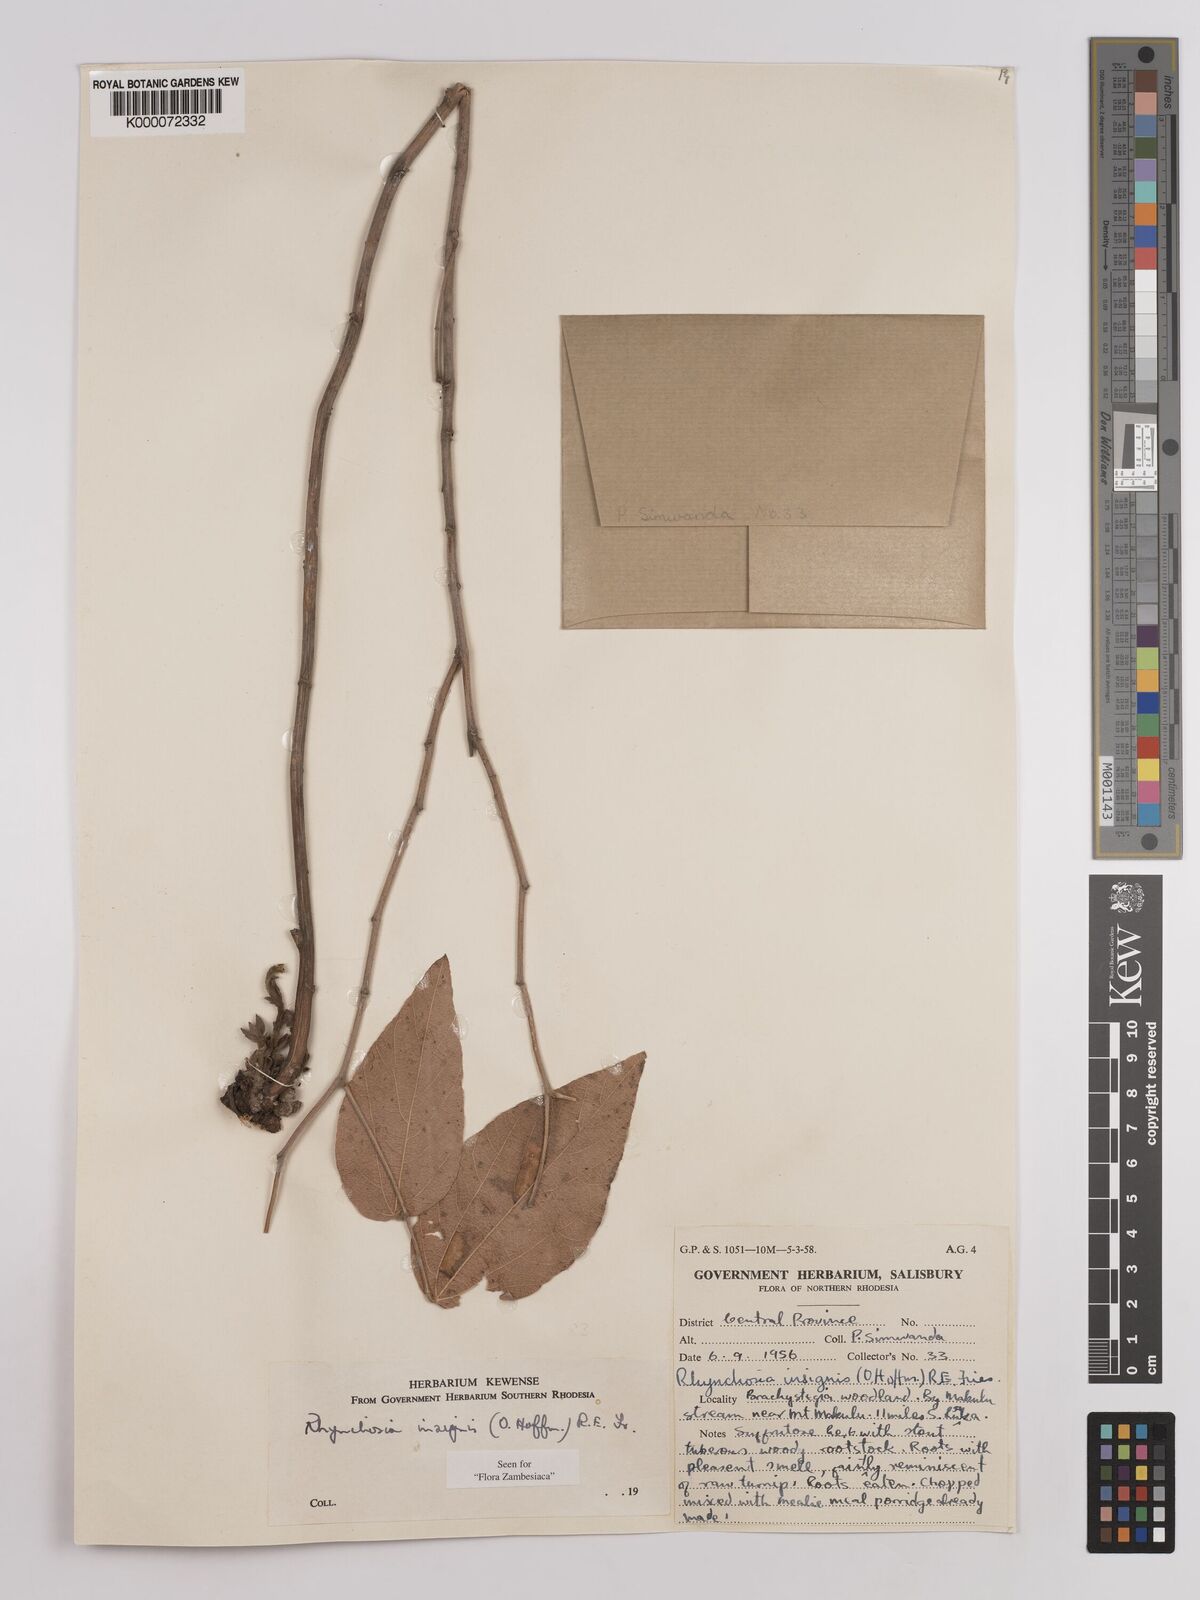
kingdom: Plantae
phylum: Tracheophyta
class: Magnoliopsida
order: Fabales
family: Fabaceae
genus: Rhynchosia
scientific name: Rhynchosia insignis
